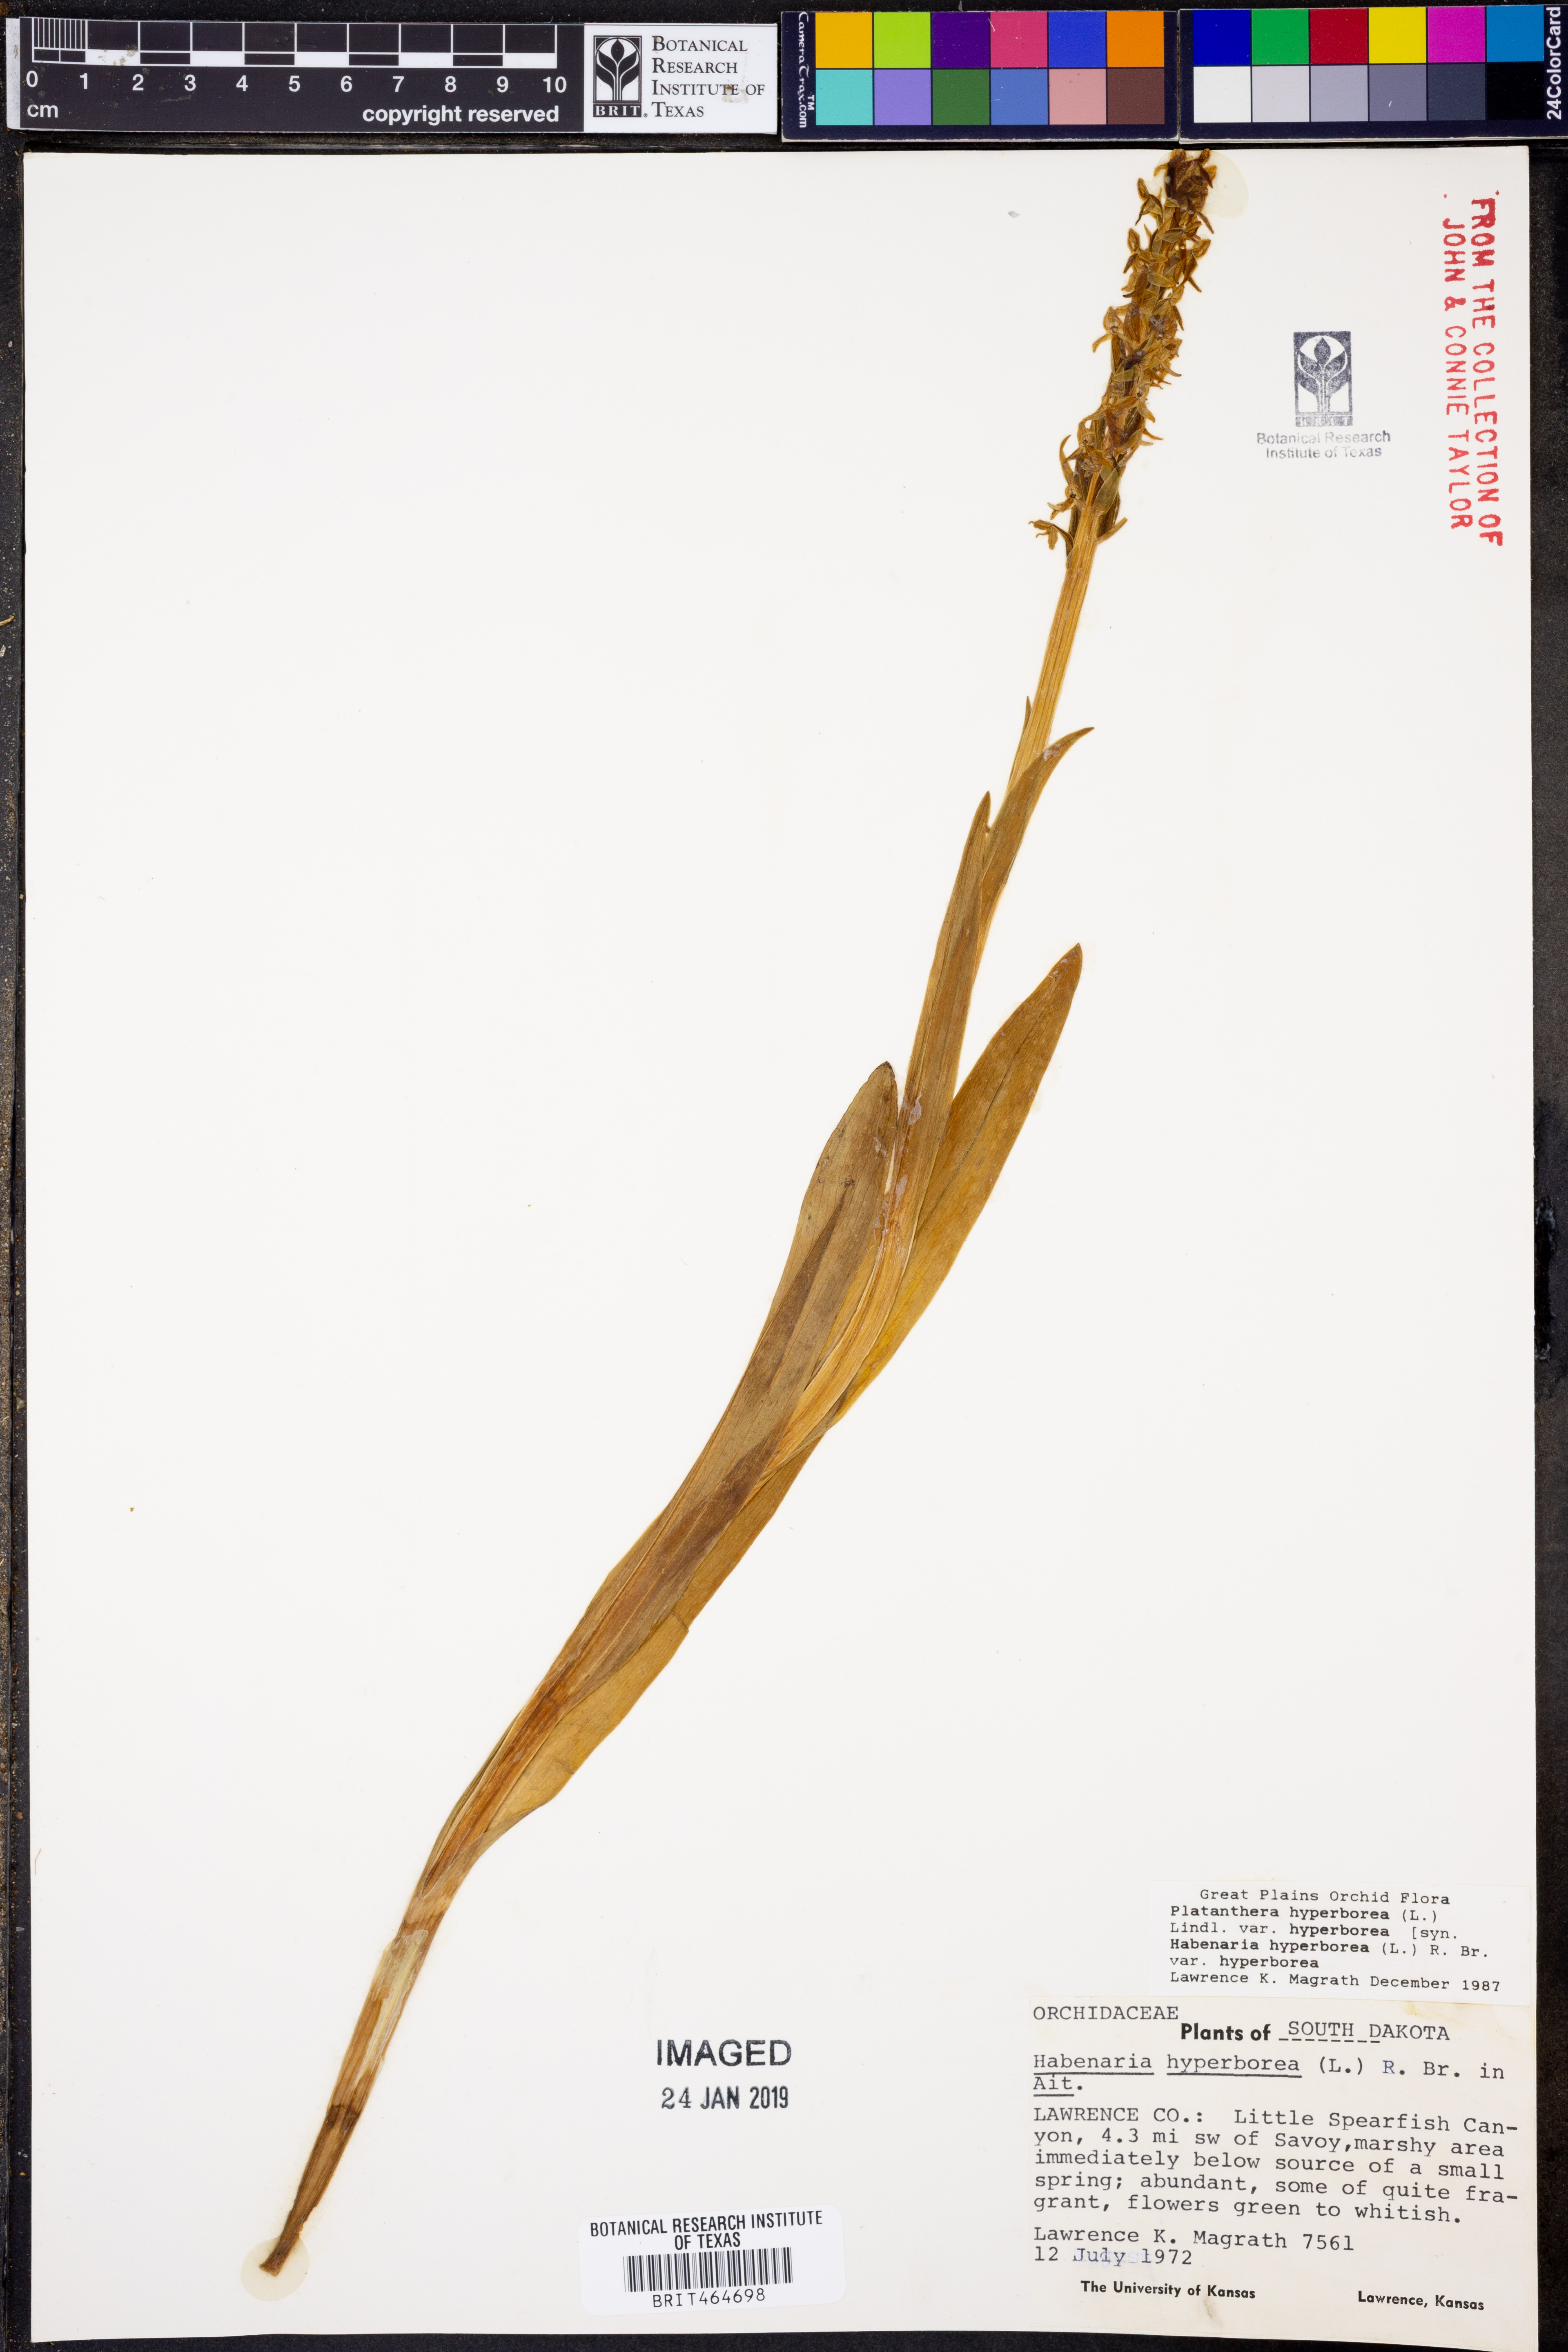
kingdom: Plantae
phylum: Tracheophyta
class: Liliopsida
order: Asparagales
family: Orchidaceae
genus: Platanthera
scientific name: Platanthera hyperborea
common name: Northern green orchid
